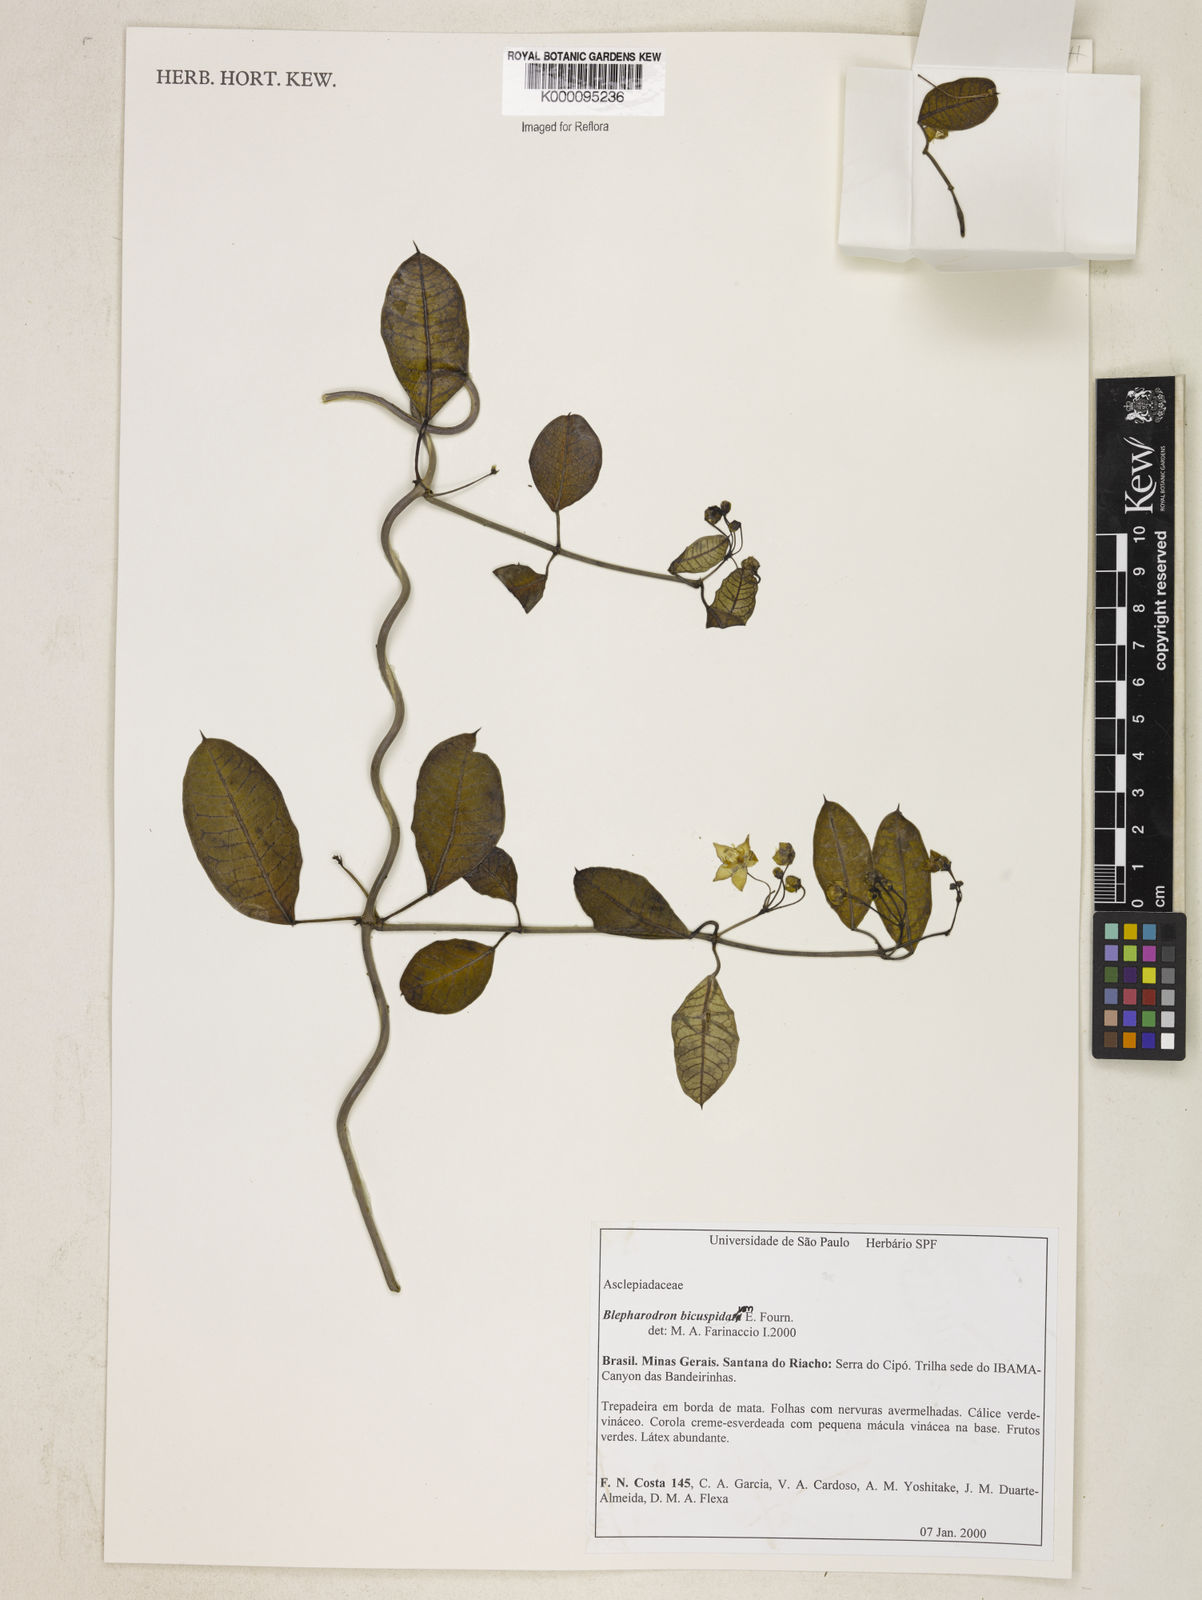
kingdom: Plantae
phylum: Tracheophyta
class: Magnoliopsida
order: Gentianales
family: Apocynaceae
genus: Blepharodon
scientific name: Blepharodon bicuspidatum
